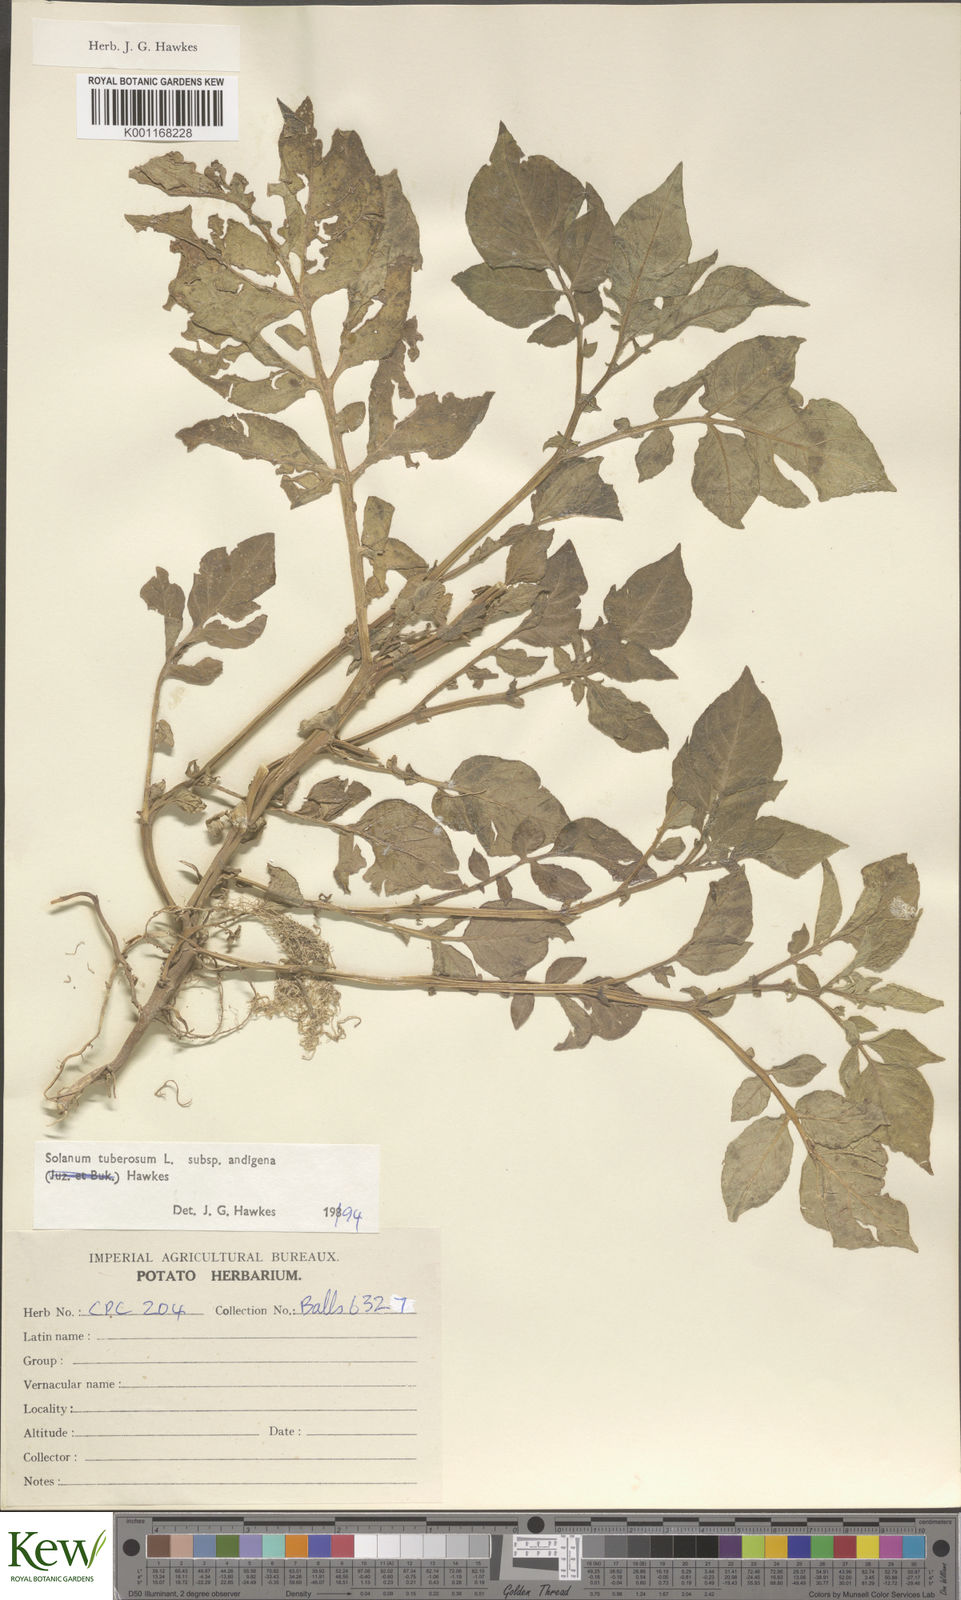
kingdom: Plantae
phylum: Tracheophyta
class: Magnoliopsida
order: Solanales
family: Solanaceae
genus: Solanum
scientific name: Solanum tuberosum
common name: Potato
